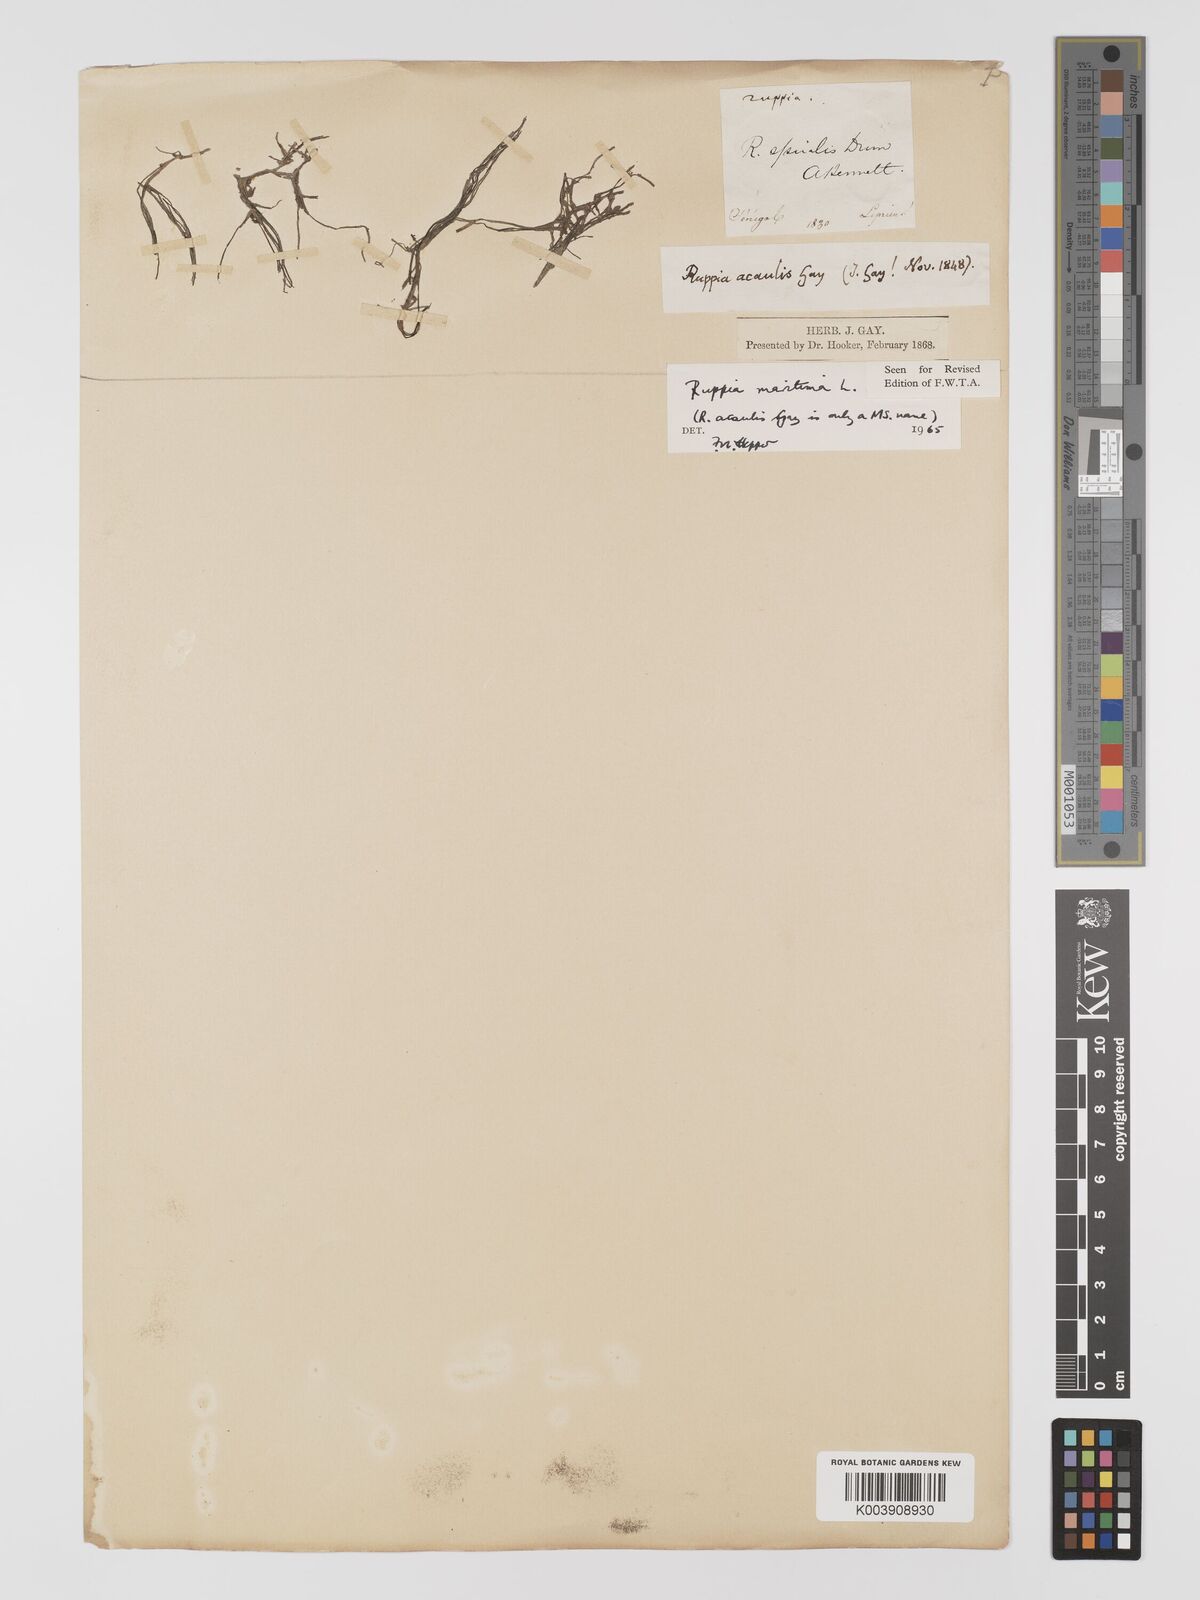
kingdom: Plantae
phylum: Tracheophyta
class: Liliopsida
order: Alismatales
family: Ruppiaceae
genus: Ruppia
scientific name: Ruppia maritima
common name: Beaked tasselweed
